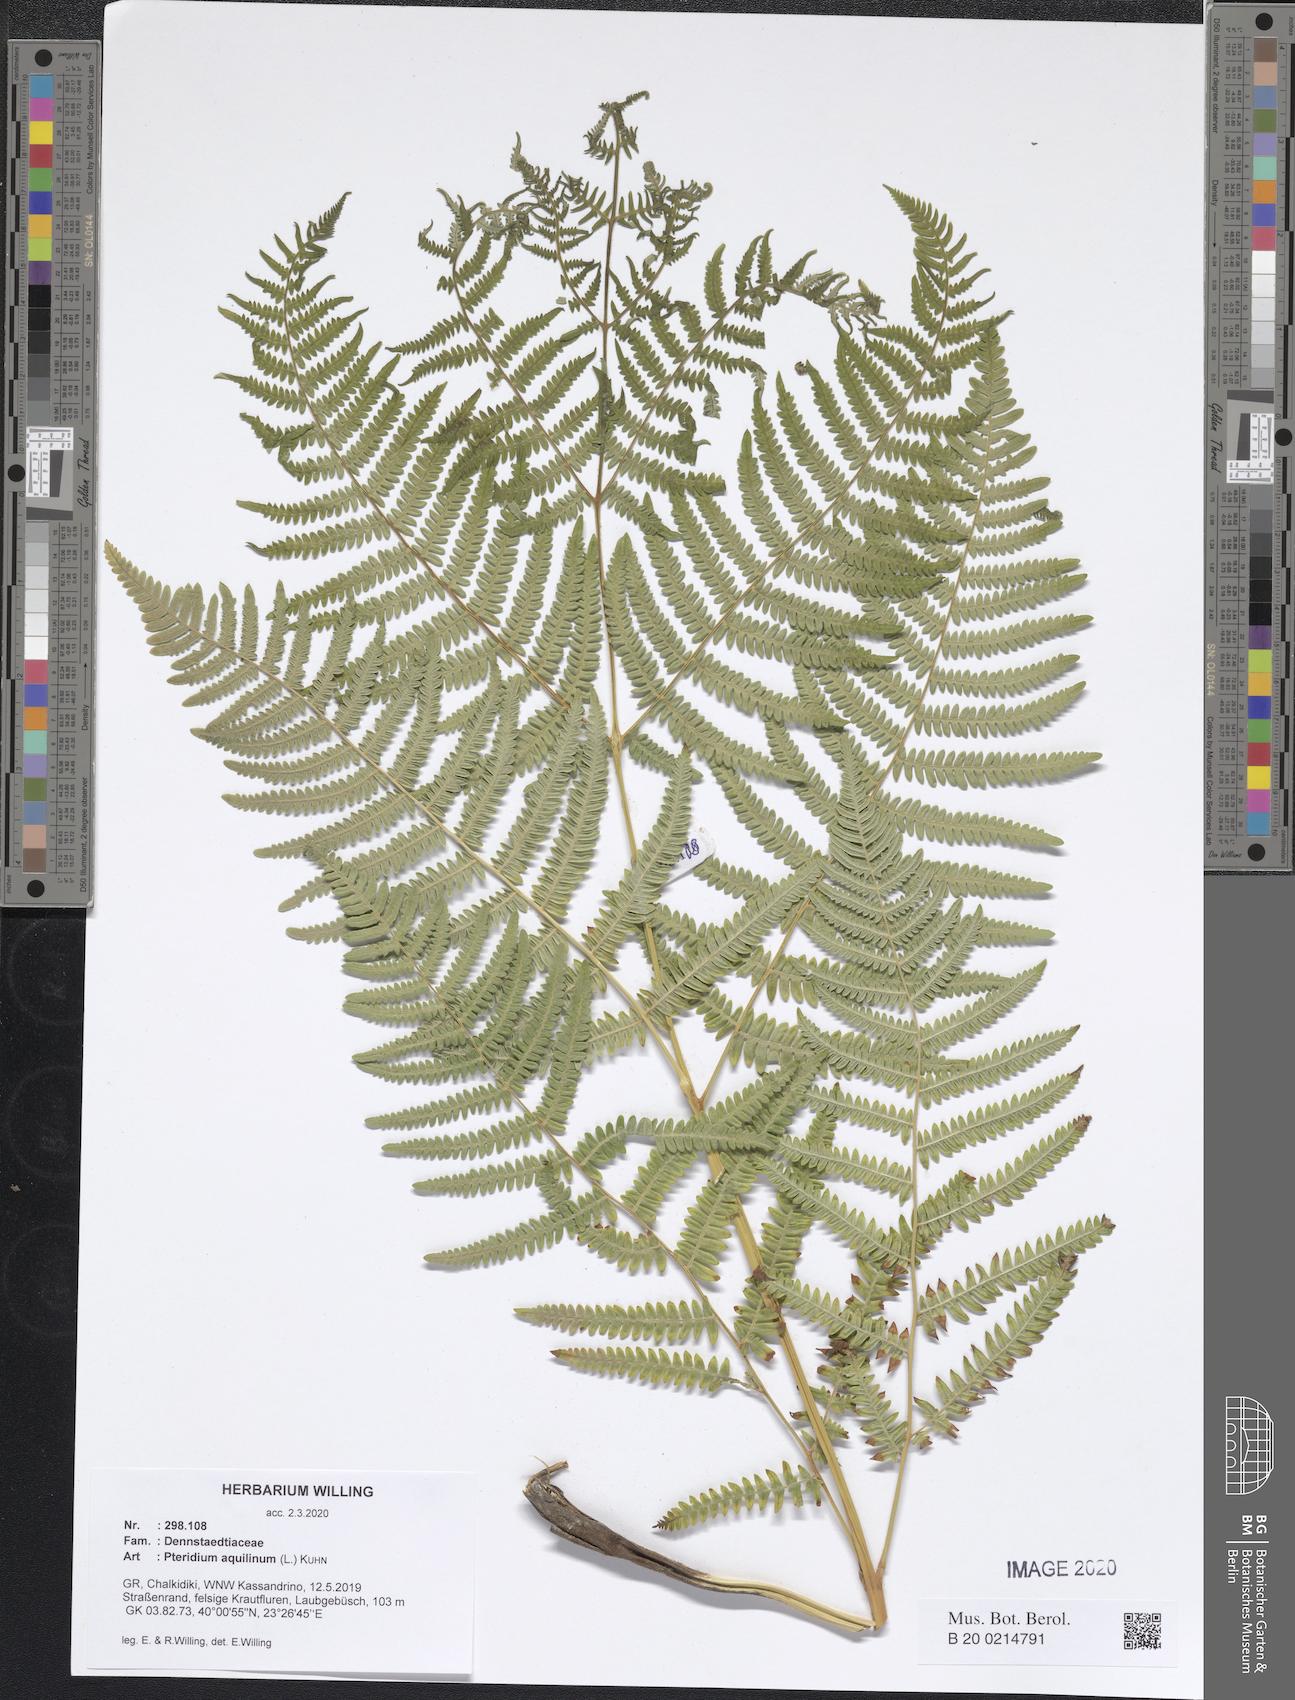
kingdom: Plantae
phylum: Tracheophyta
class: Polypodiopsida
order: Polypodiales
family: Dennstaedtiaceae
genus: Pteridium
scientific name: Pteridium aquilinum
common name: Bracken
